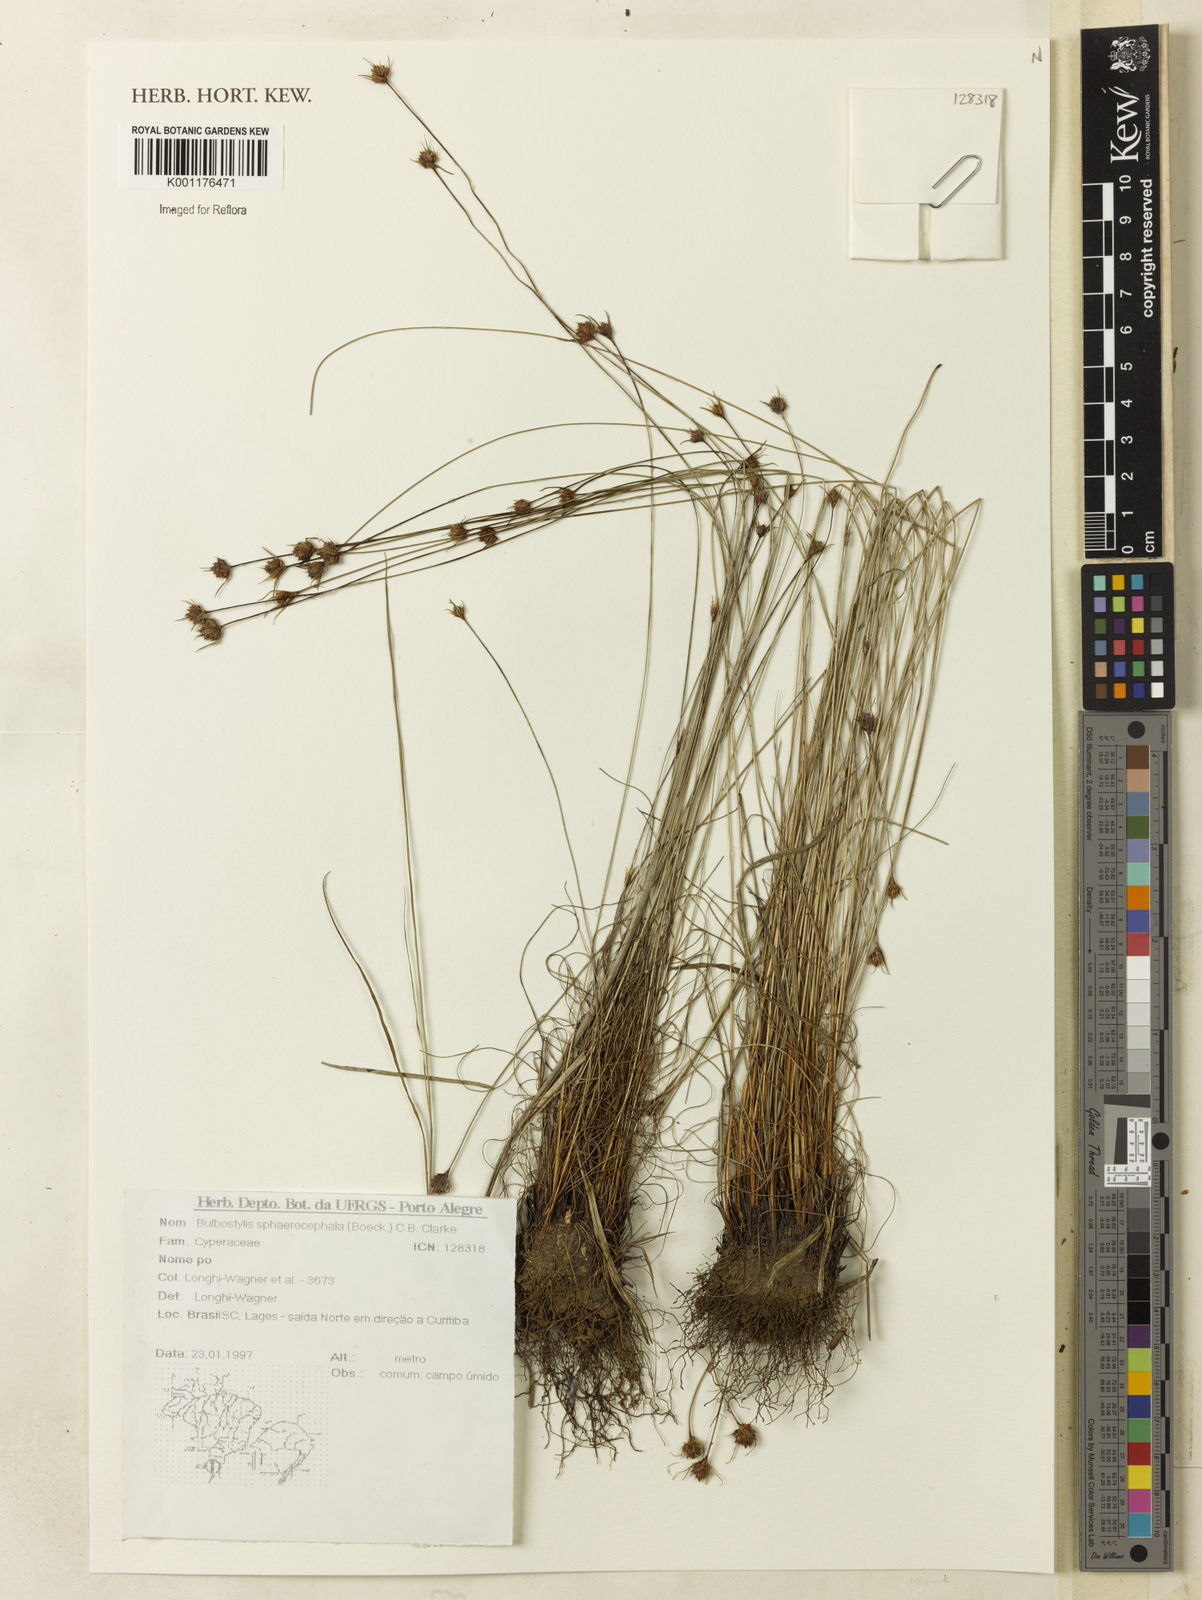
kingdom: Plantae
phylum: Tracheophyta
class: Liliopsida
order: Poales
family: Cyperaceae
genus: Bulbostylis
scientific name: Bulbostylis
